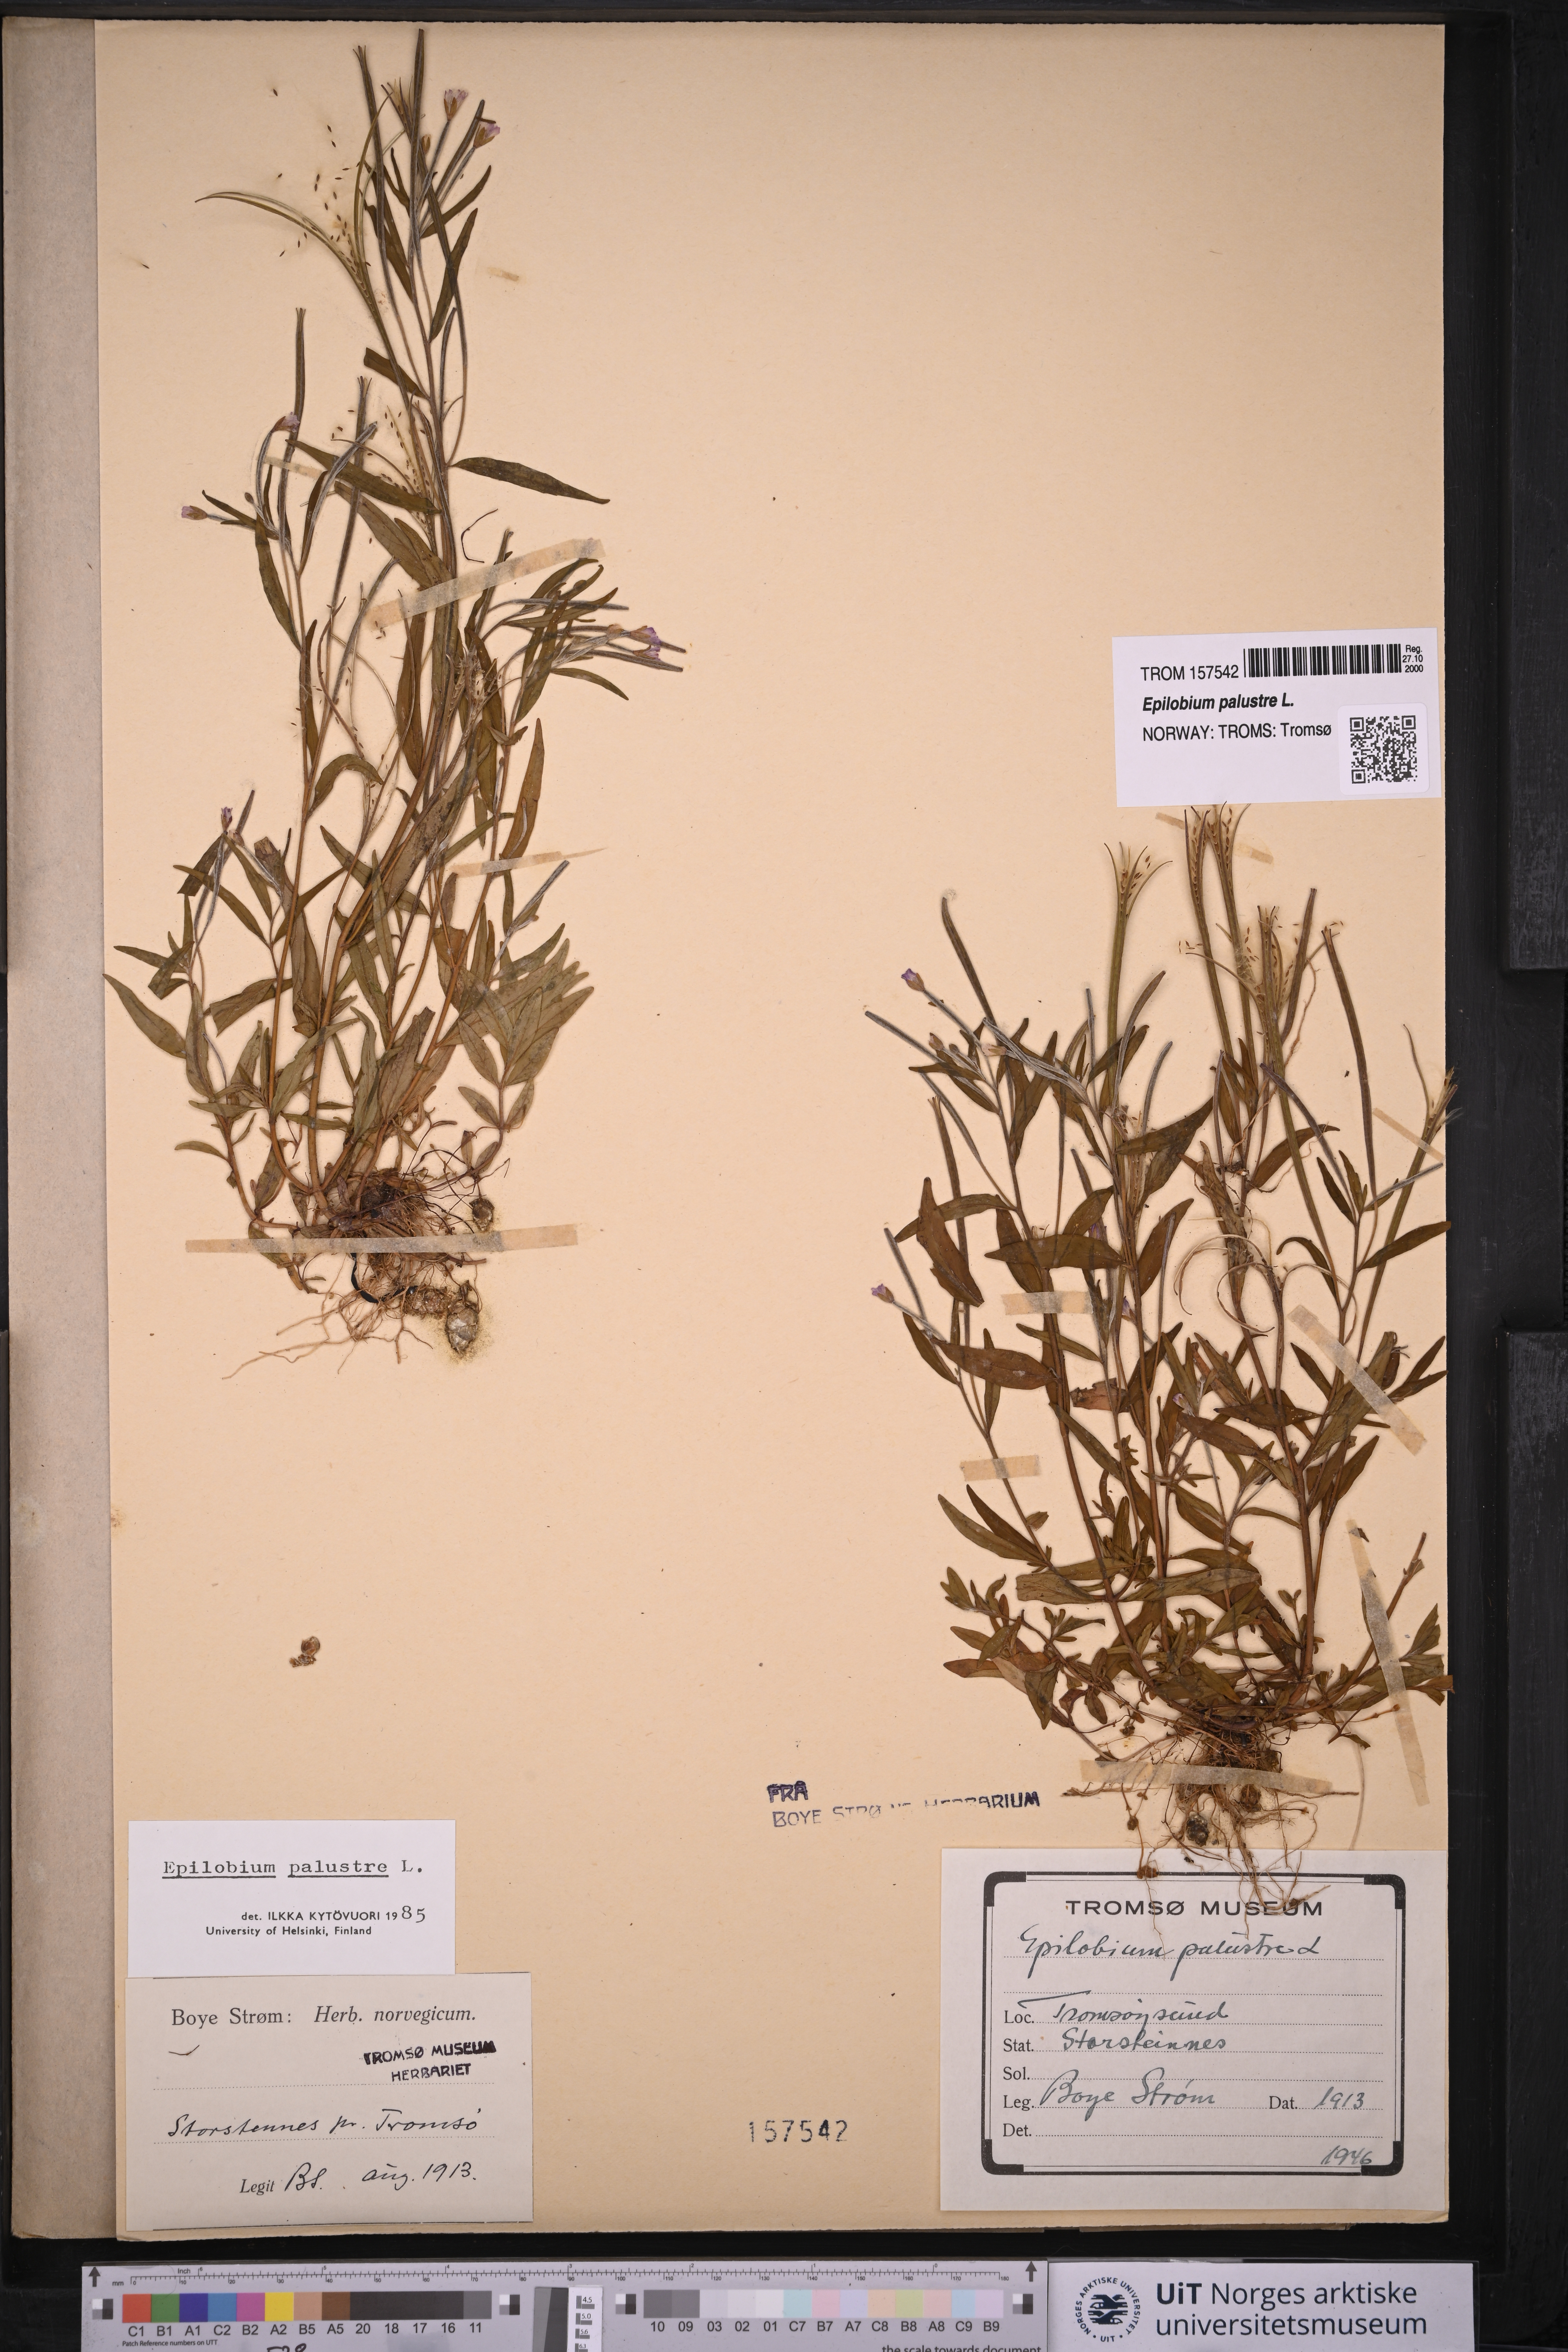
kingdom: Plantae
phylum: Tracheophyta
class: Magnoliopsida
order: Myrtales
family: Onagraceae
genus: Epilobium
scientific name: Epilobium palustre
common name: Marsh willowherb
